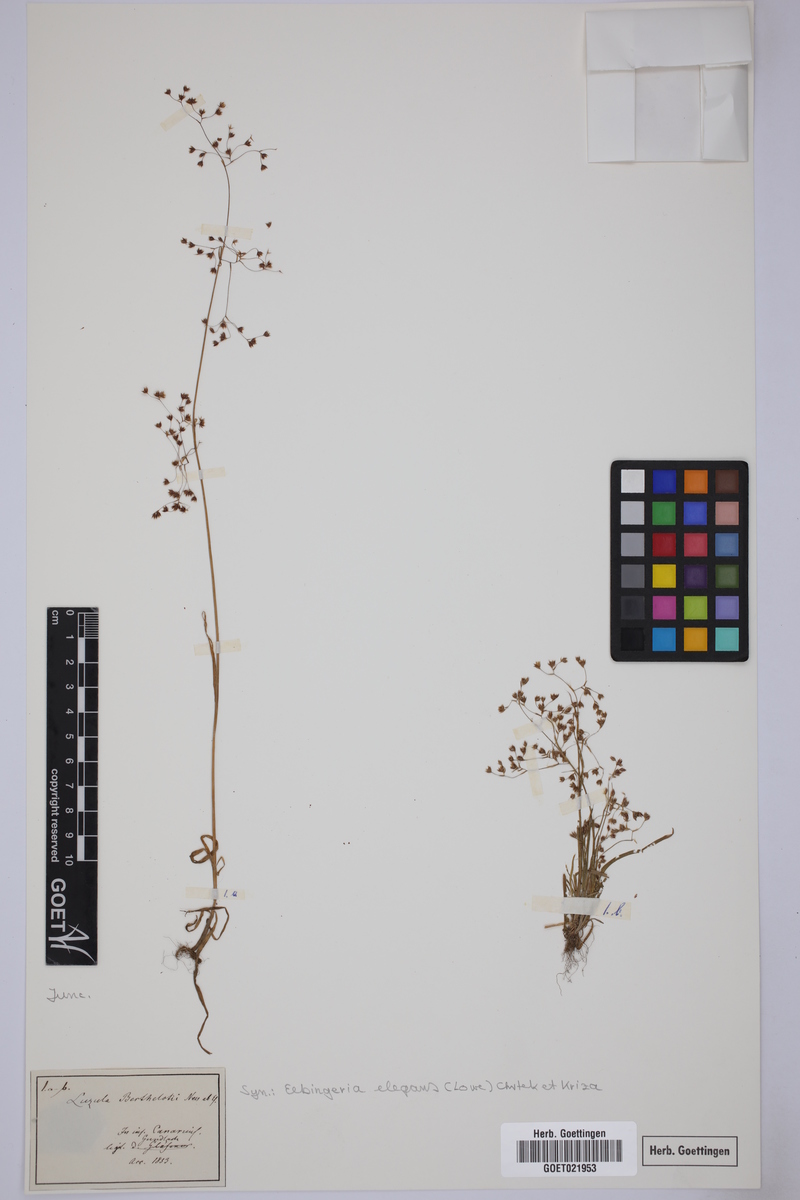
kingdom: Plantae
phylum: Tracheophyta
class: Liliopsida
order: Poales
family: Juncaceae
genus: Luzula
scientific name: Luzula elegans
